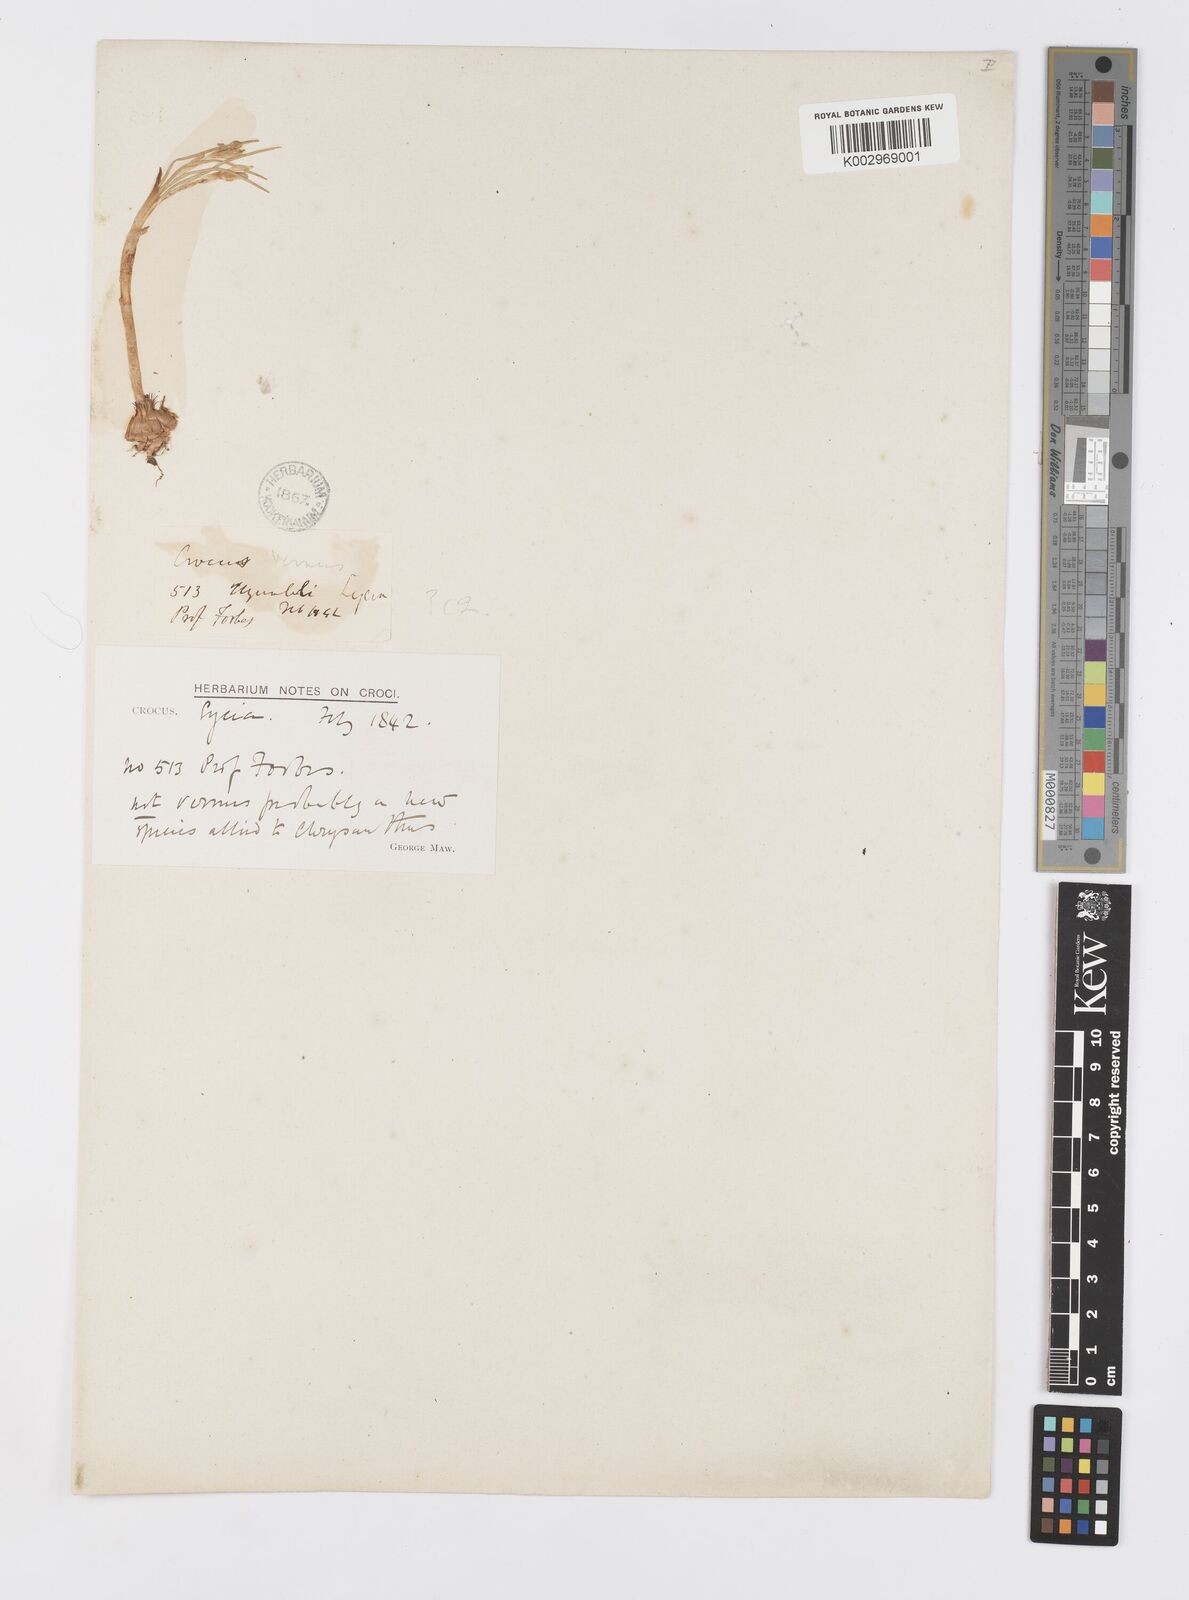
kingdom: Plantae
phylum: Tracheophyta
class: Liliopsida
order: Asparagales
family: Iridaceae
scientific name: Iridaceae
